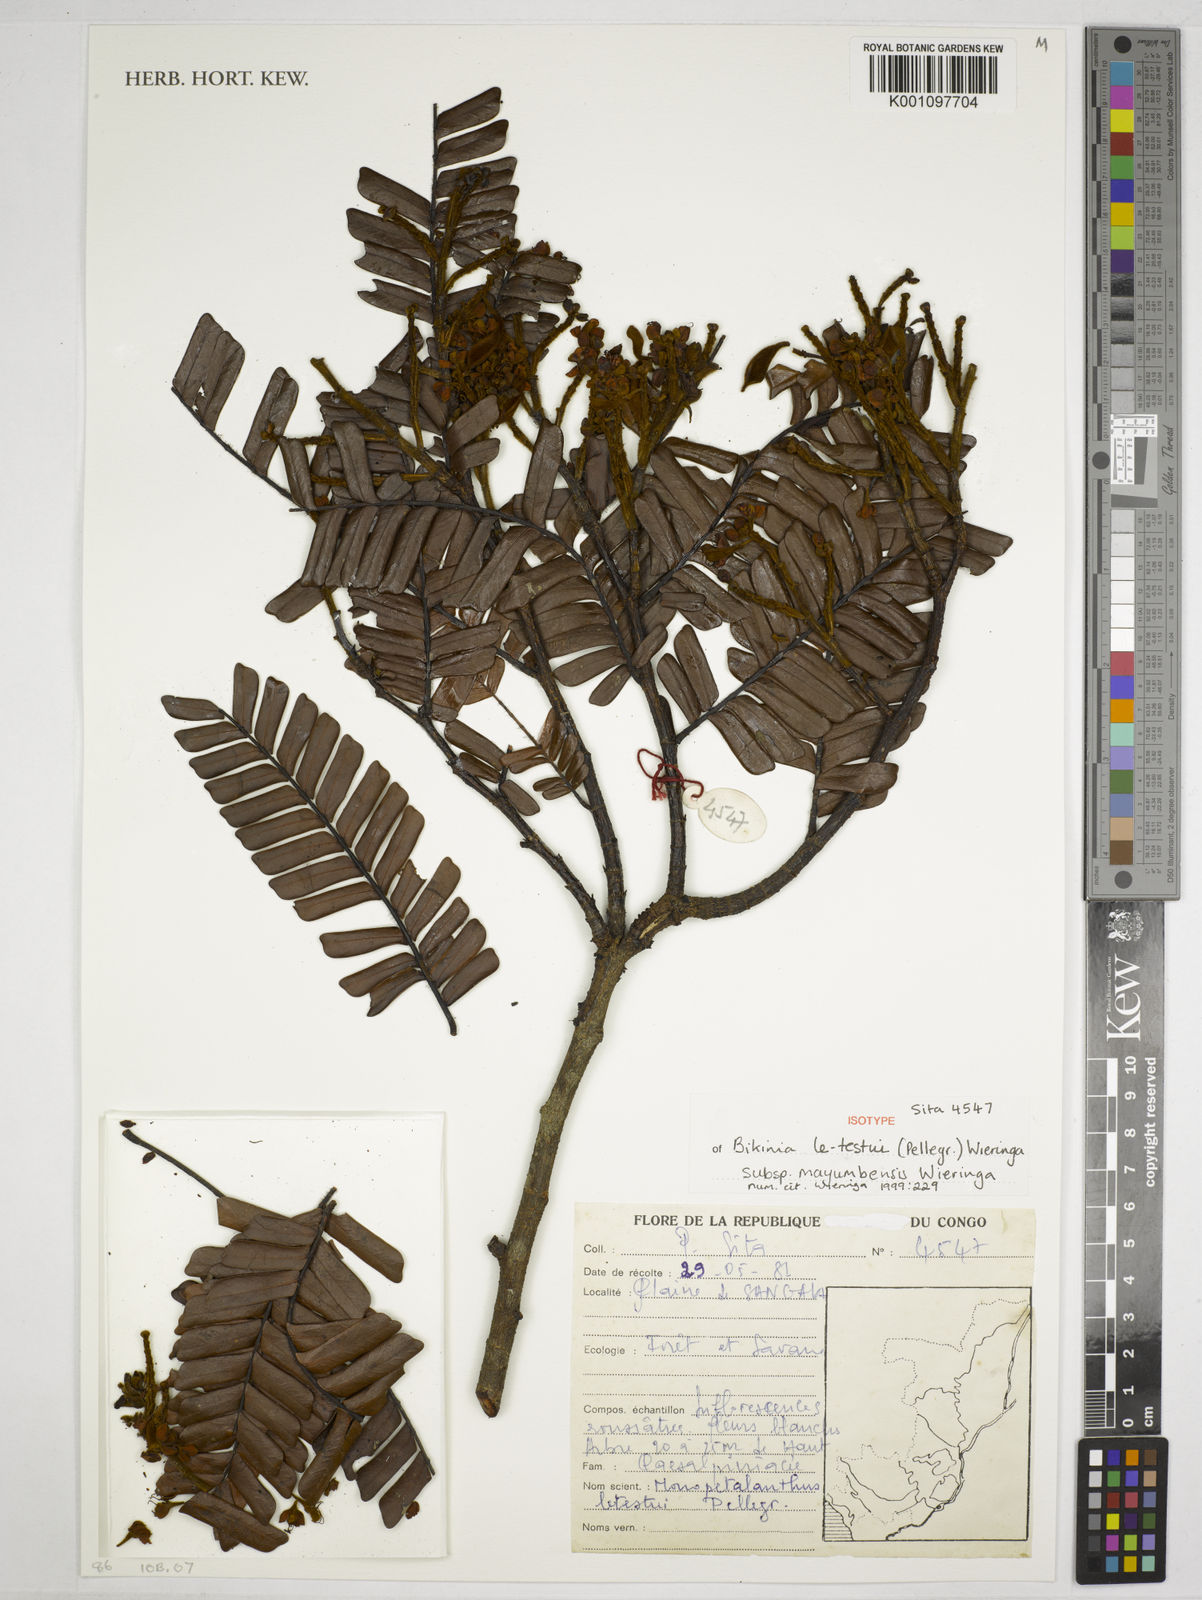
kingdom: Plantae
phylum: Tracheophyta
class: Magnoliopsida
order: Fabales
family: Fabaceae
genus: Bikinia
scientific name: Bikinia letestui
